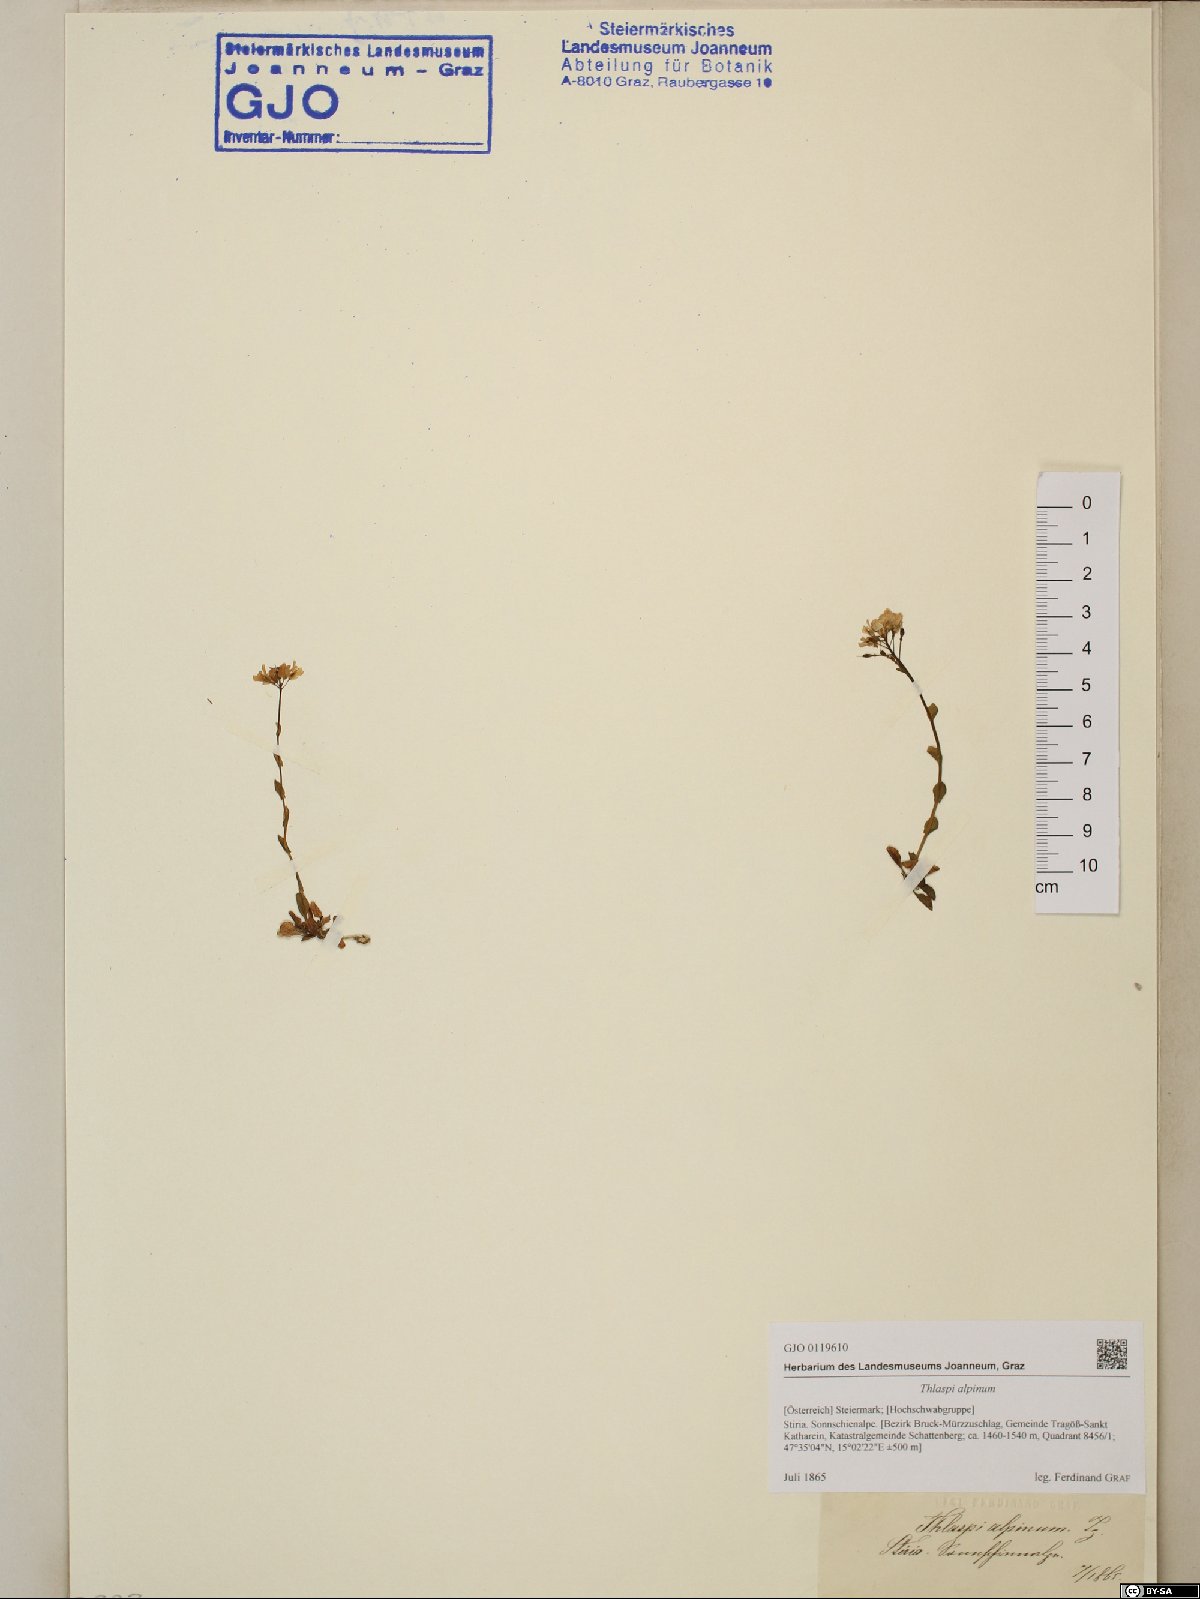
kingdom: Plantae
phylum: Tracheophyta
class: Magnoliopsida
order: Brassicales
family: Brassicaceae
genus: Noccaea
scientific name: Noccaea alpestris
